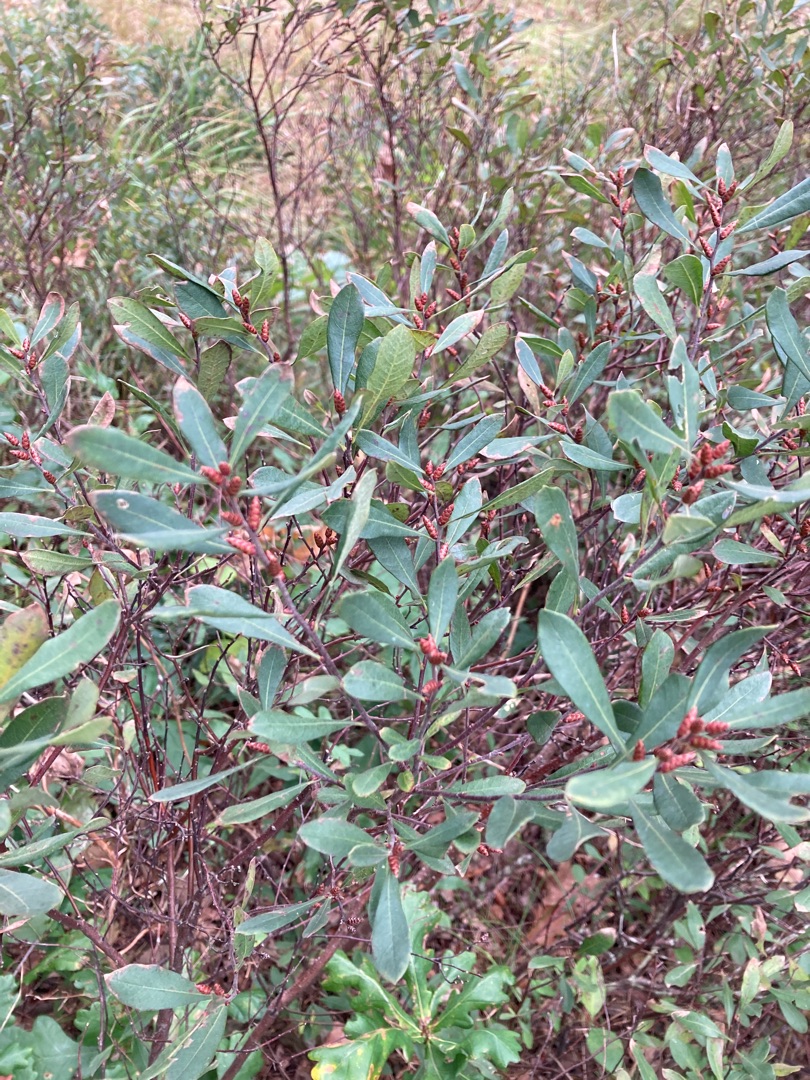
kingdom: Plantae
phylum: Tracheophyta
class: Magnoliopsida
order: Fagales
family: Myricaceae
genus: Myrica
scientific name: Myrica gale
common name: Pors
